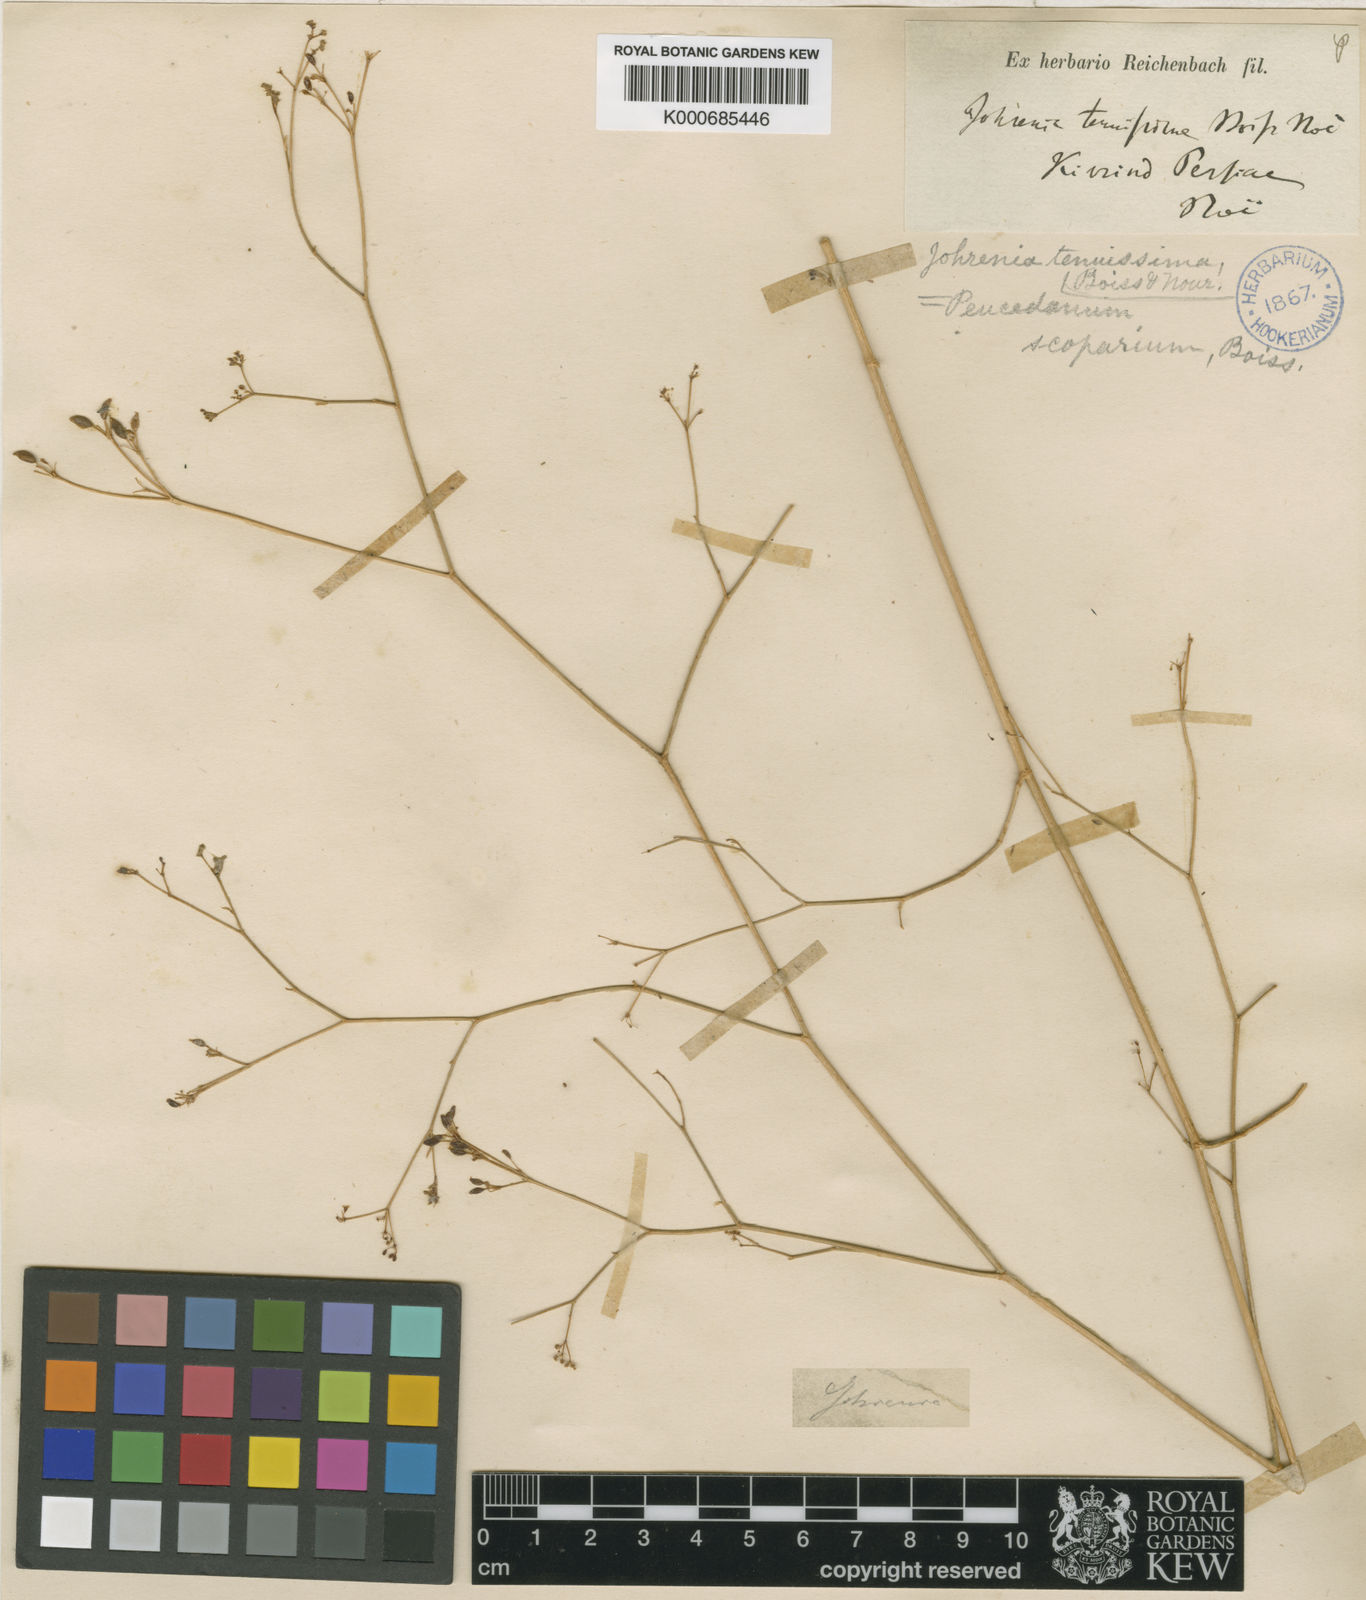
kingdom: Plantae
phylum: Tracheophyta
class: Magnoliopsida
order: Apiales
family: Apiaceae
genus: Dichoropetalum
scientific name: Dichoropetalum scoparium
